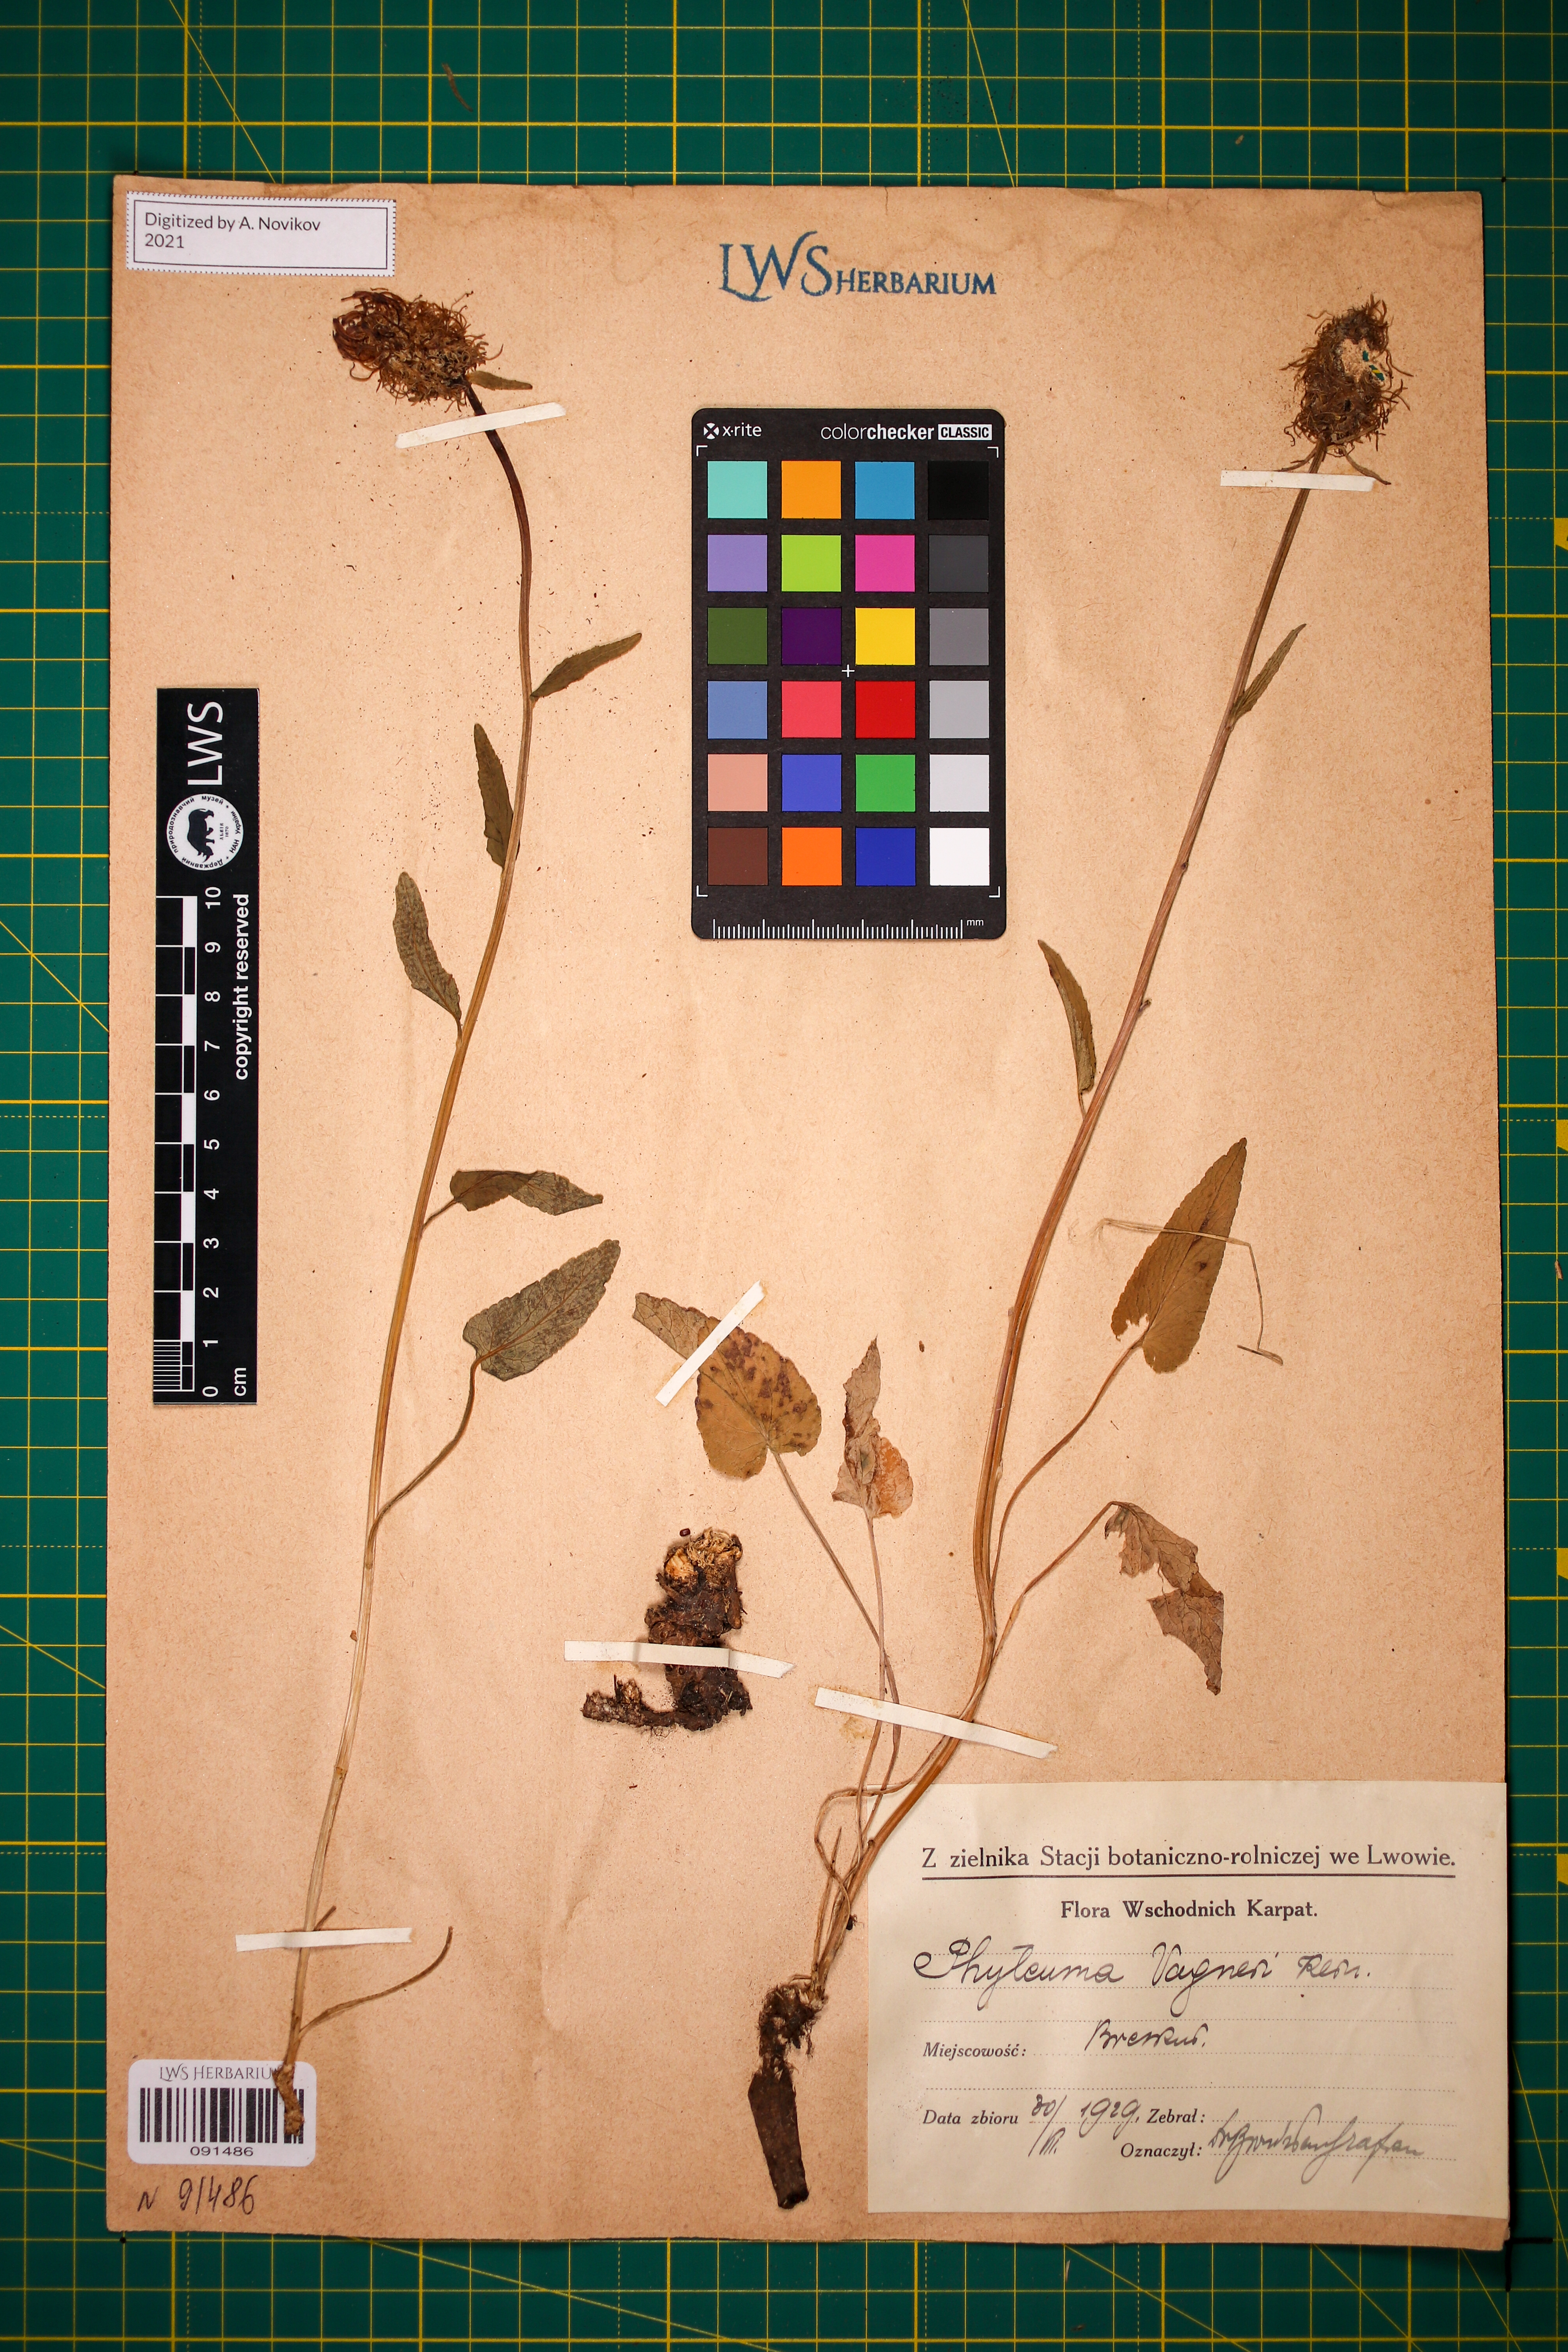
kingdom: Plantae
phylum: Tracheophyta
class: Magnoliopsida
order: Asterales
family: Campanulaceae
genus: Phyteuma
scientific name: Phyteuma vagneri
